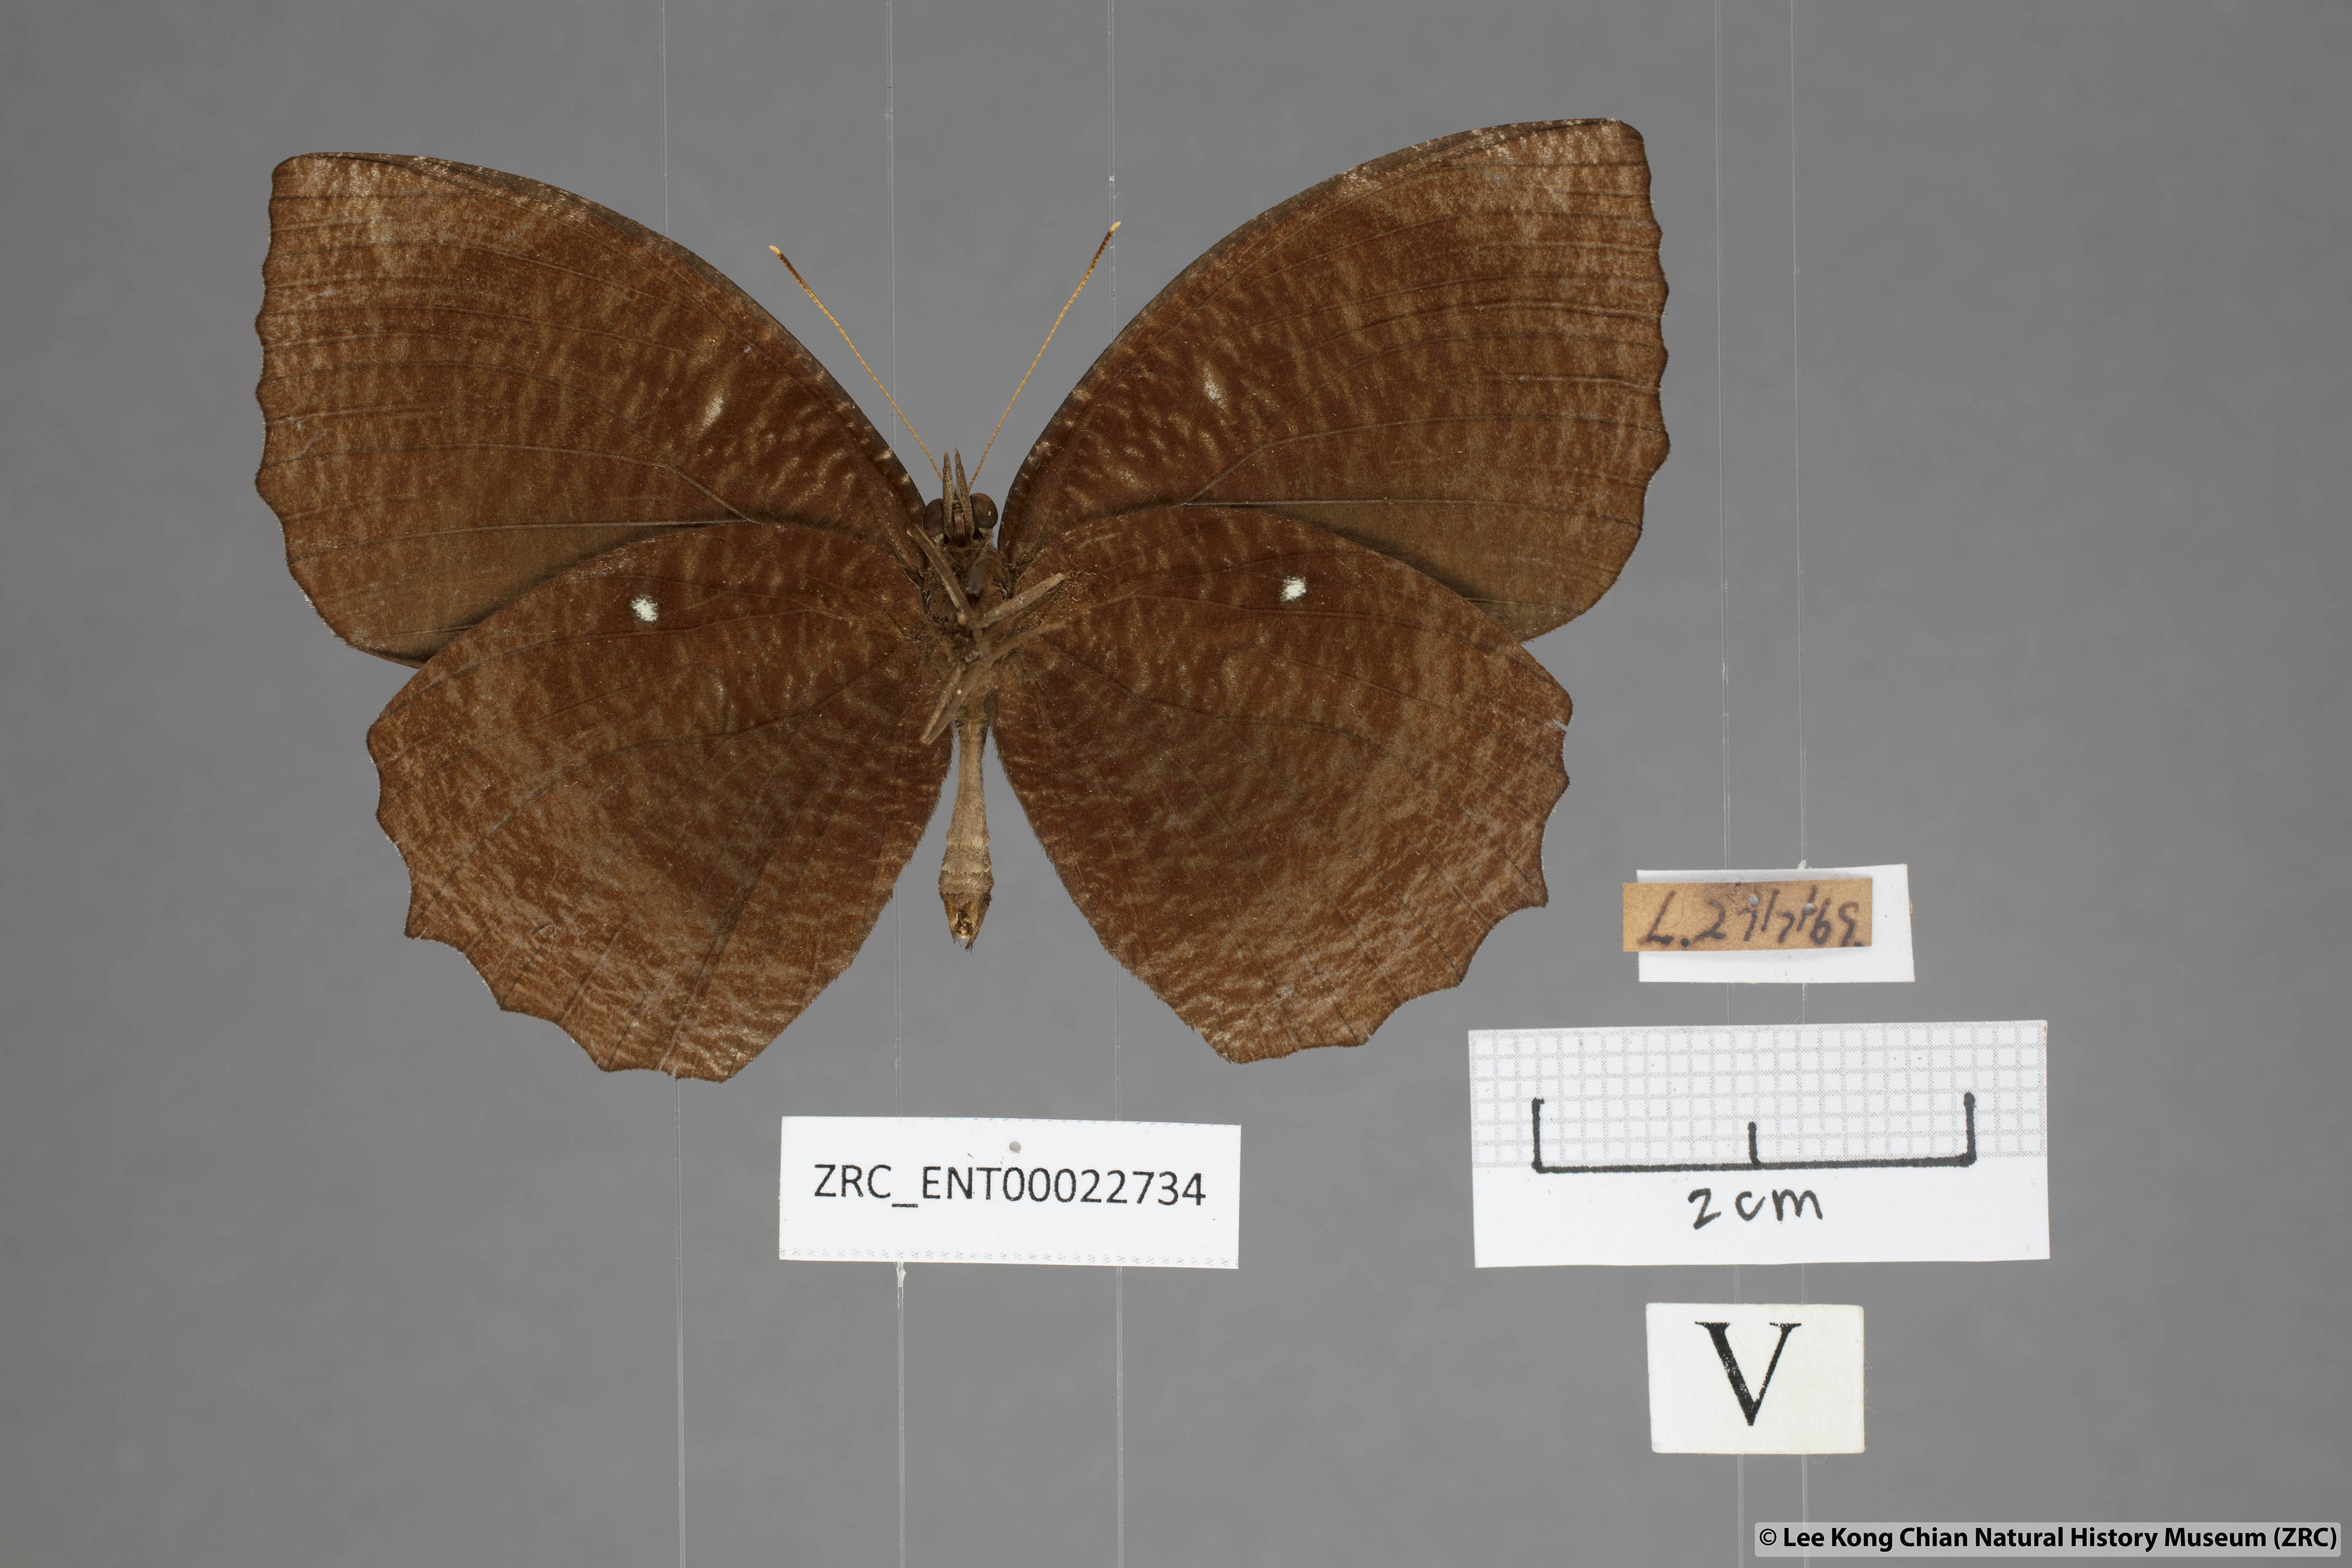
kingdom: Animalia
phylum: Arthropoda
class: Insecta
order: Lepidoptera
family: Nymphalidae
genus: Elymnias
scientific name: Elymnias hypermnestra
